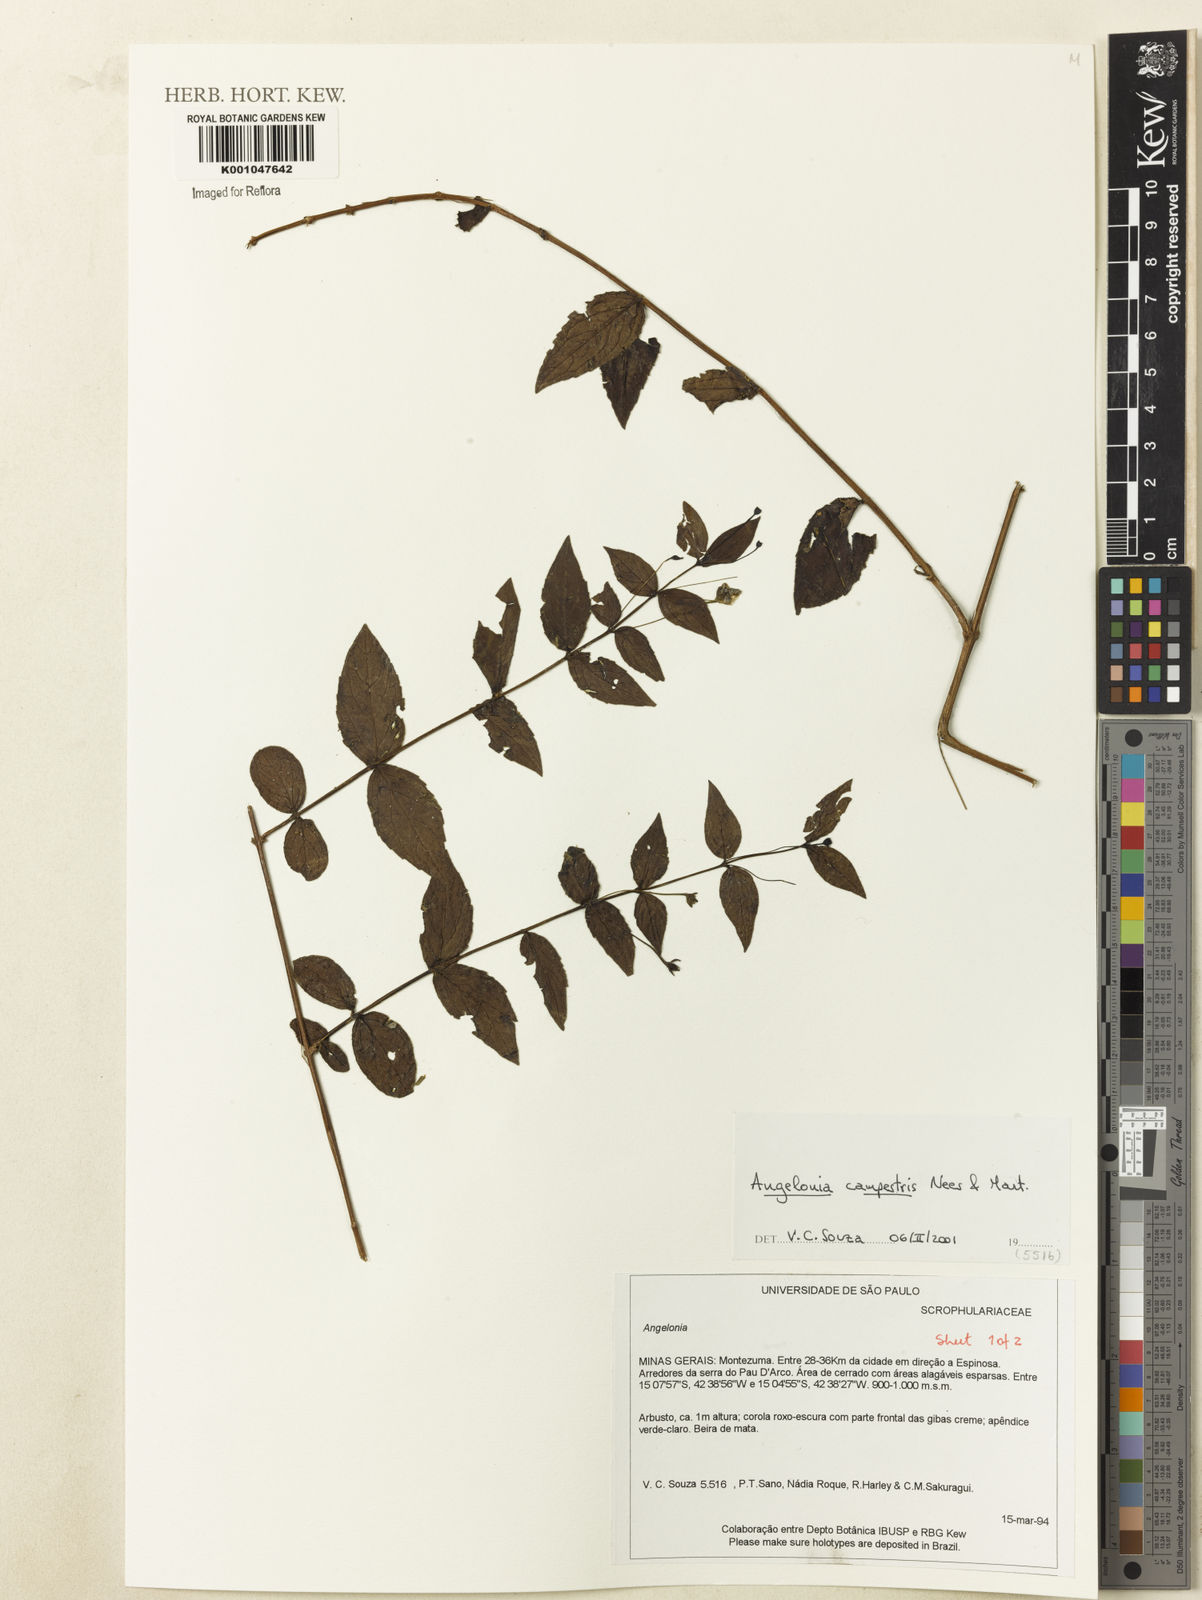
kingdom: Plantae
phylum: Tracheophyta
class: Magnoliopsida
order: Lamiales
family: Plantaginaceae
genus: Angelonia
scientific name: Angelonia campestris
